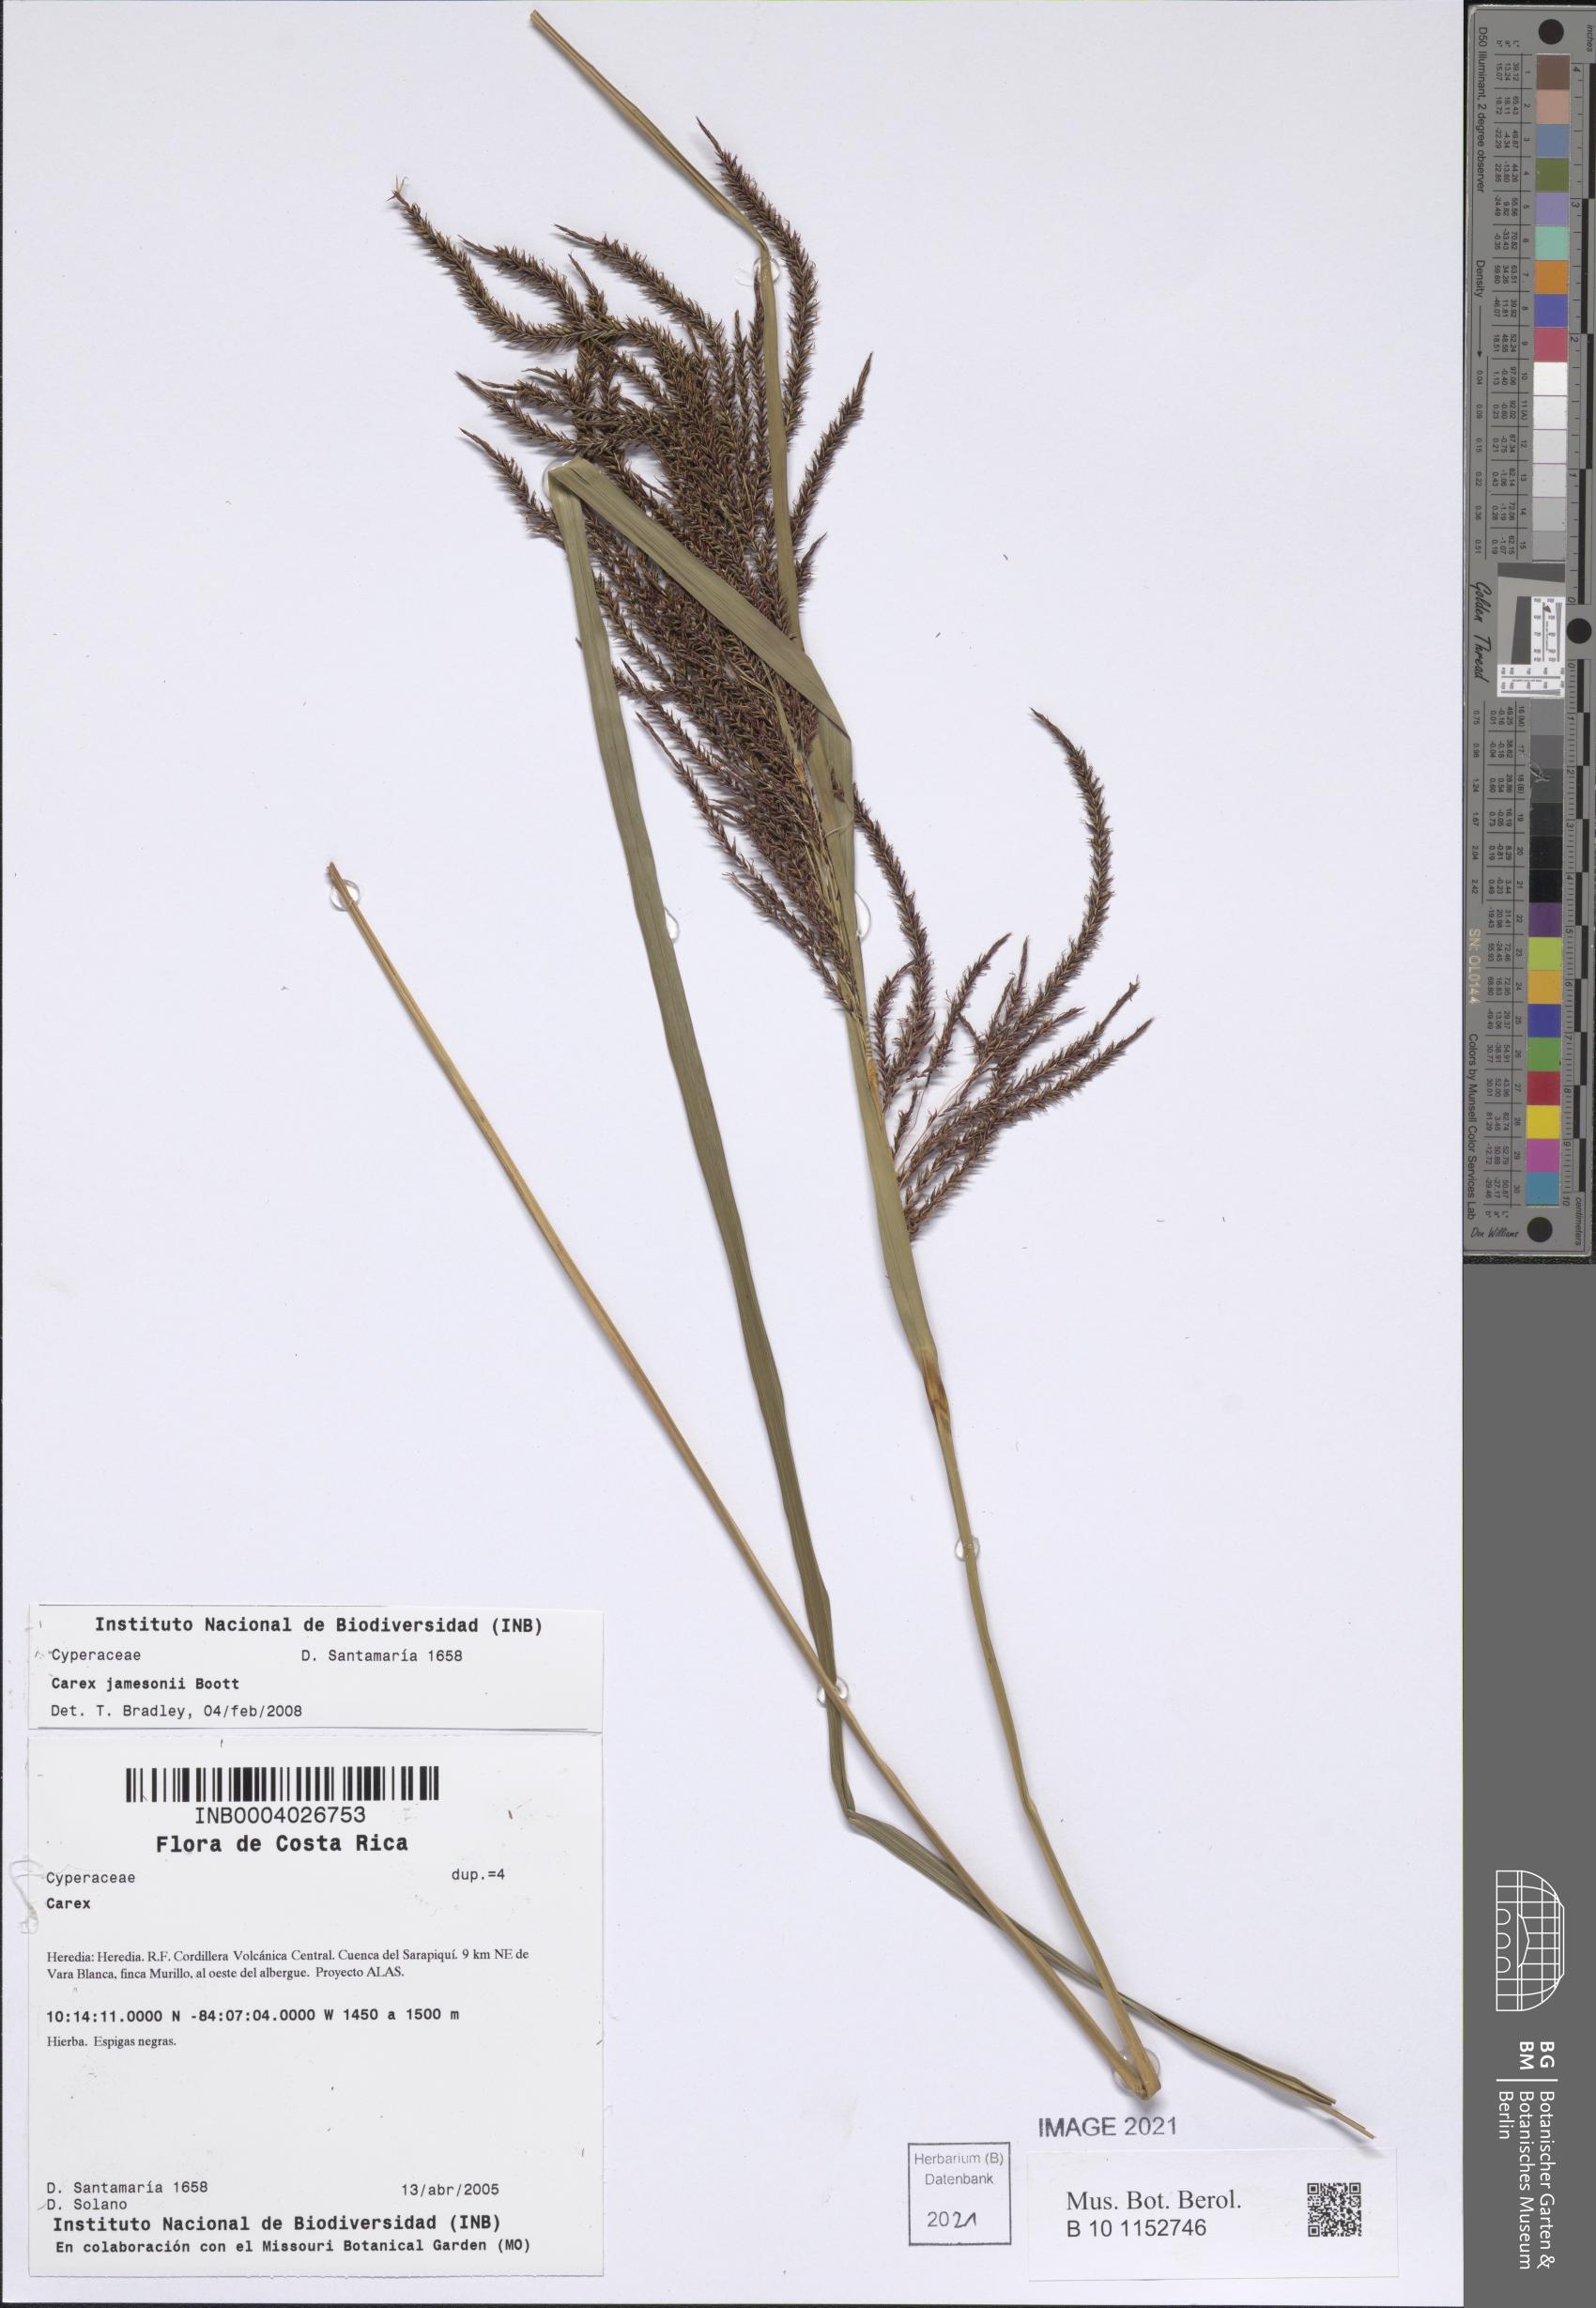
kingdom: Plantae
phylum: Tracheophyta
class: Liliopsida
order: Poales
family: Cyperaceae
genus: Carex
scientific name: Carex jamesonii
